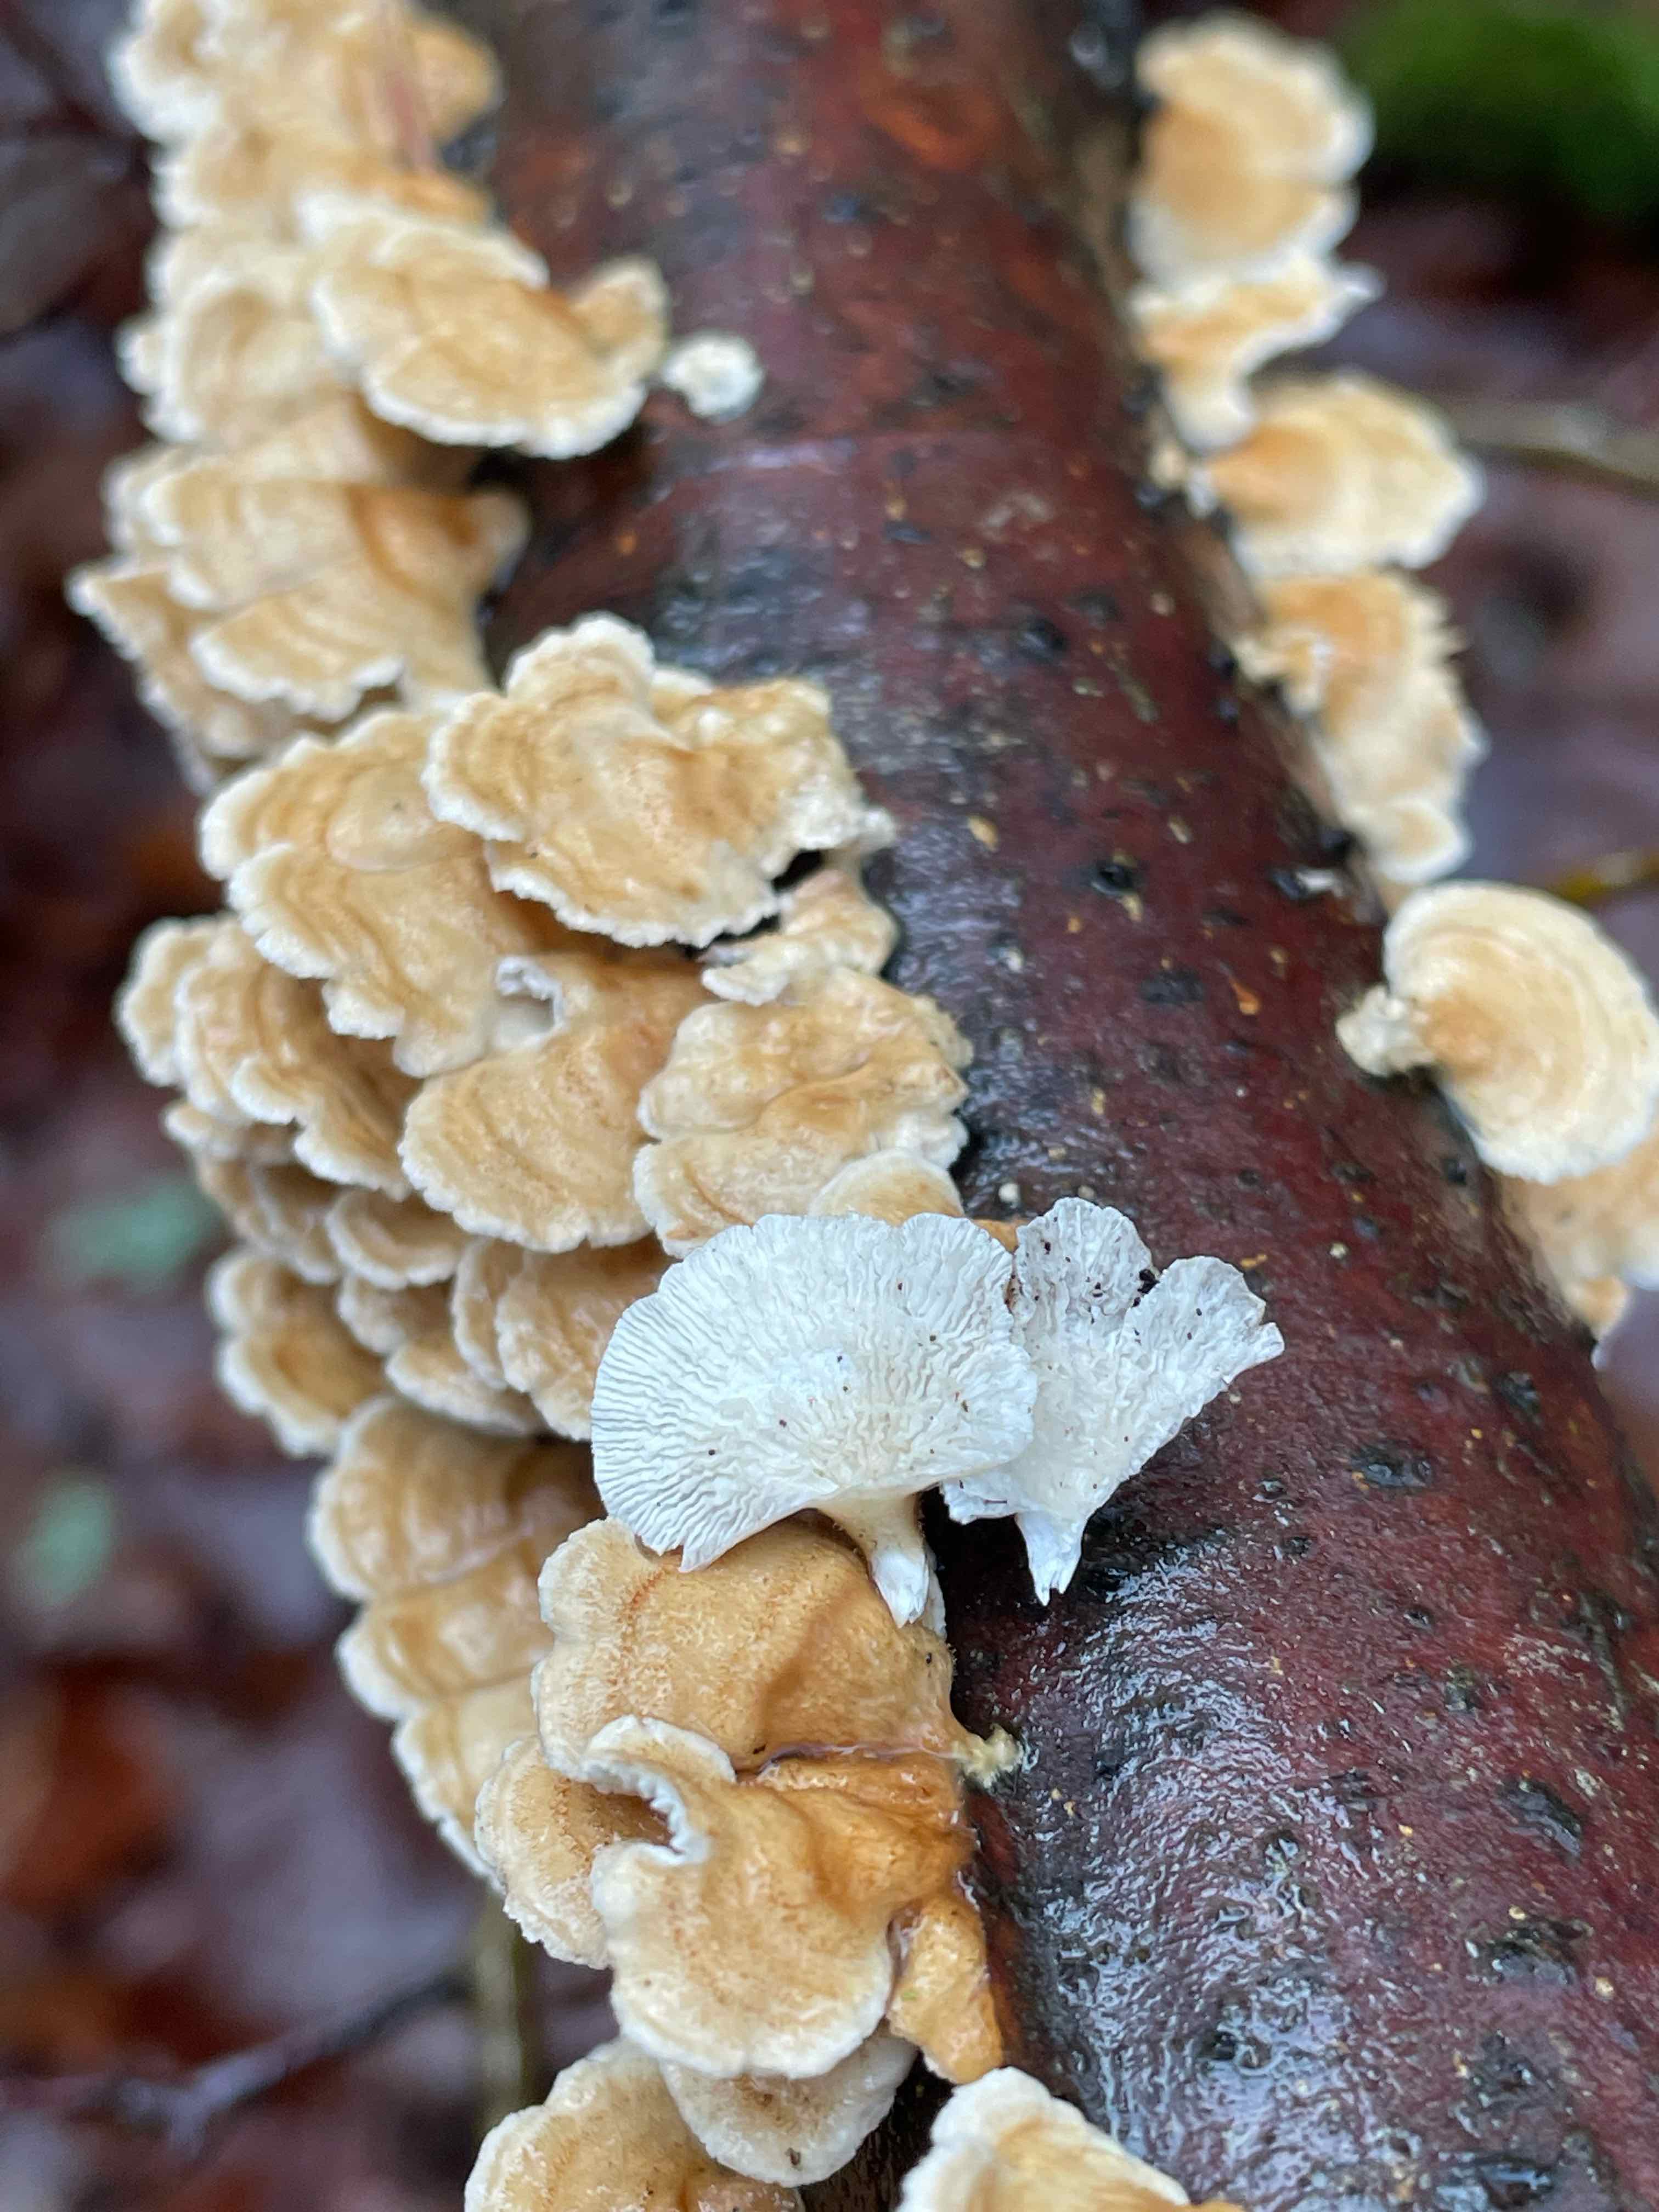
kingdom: Fungi
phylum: Basidiomycota
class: Agaricomycetes
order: Amylocorticiales
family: Amylocorticiaceae
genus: Plicaturopsis
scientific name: Plicaturopsis crispa
